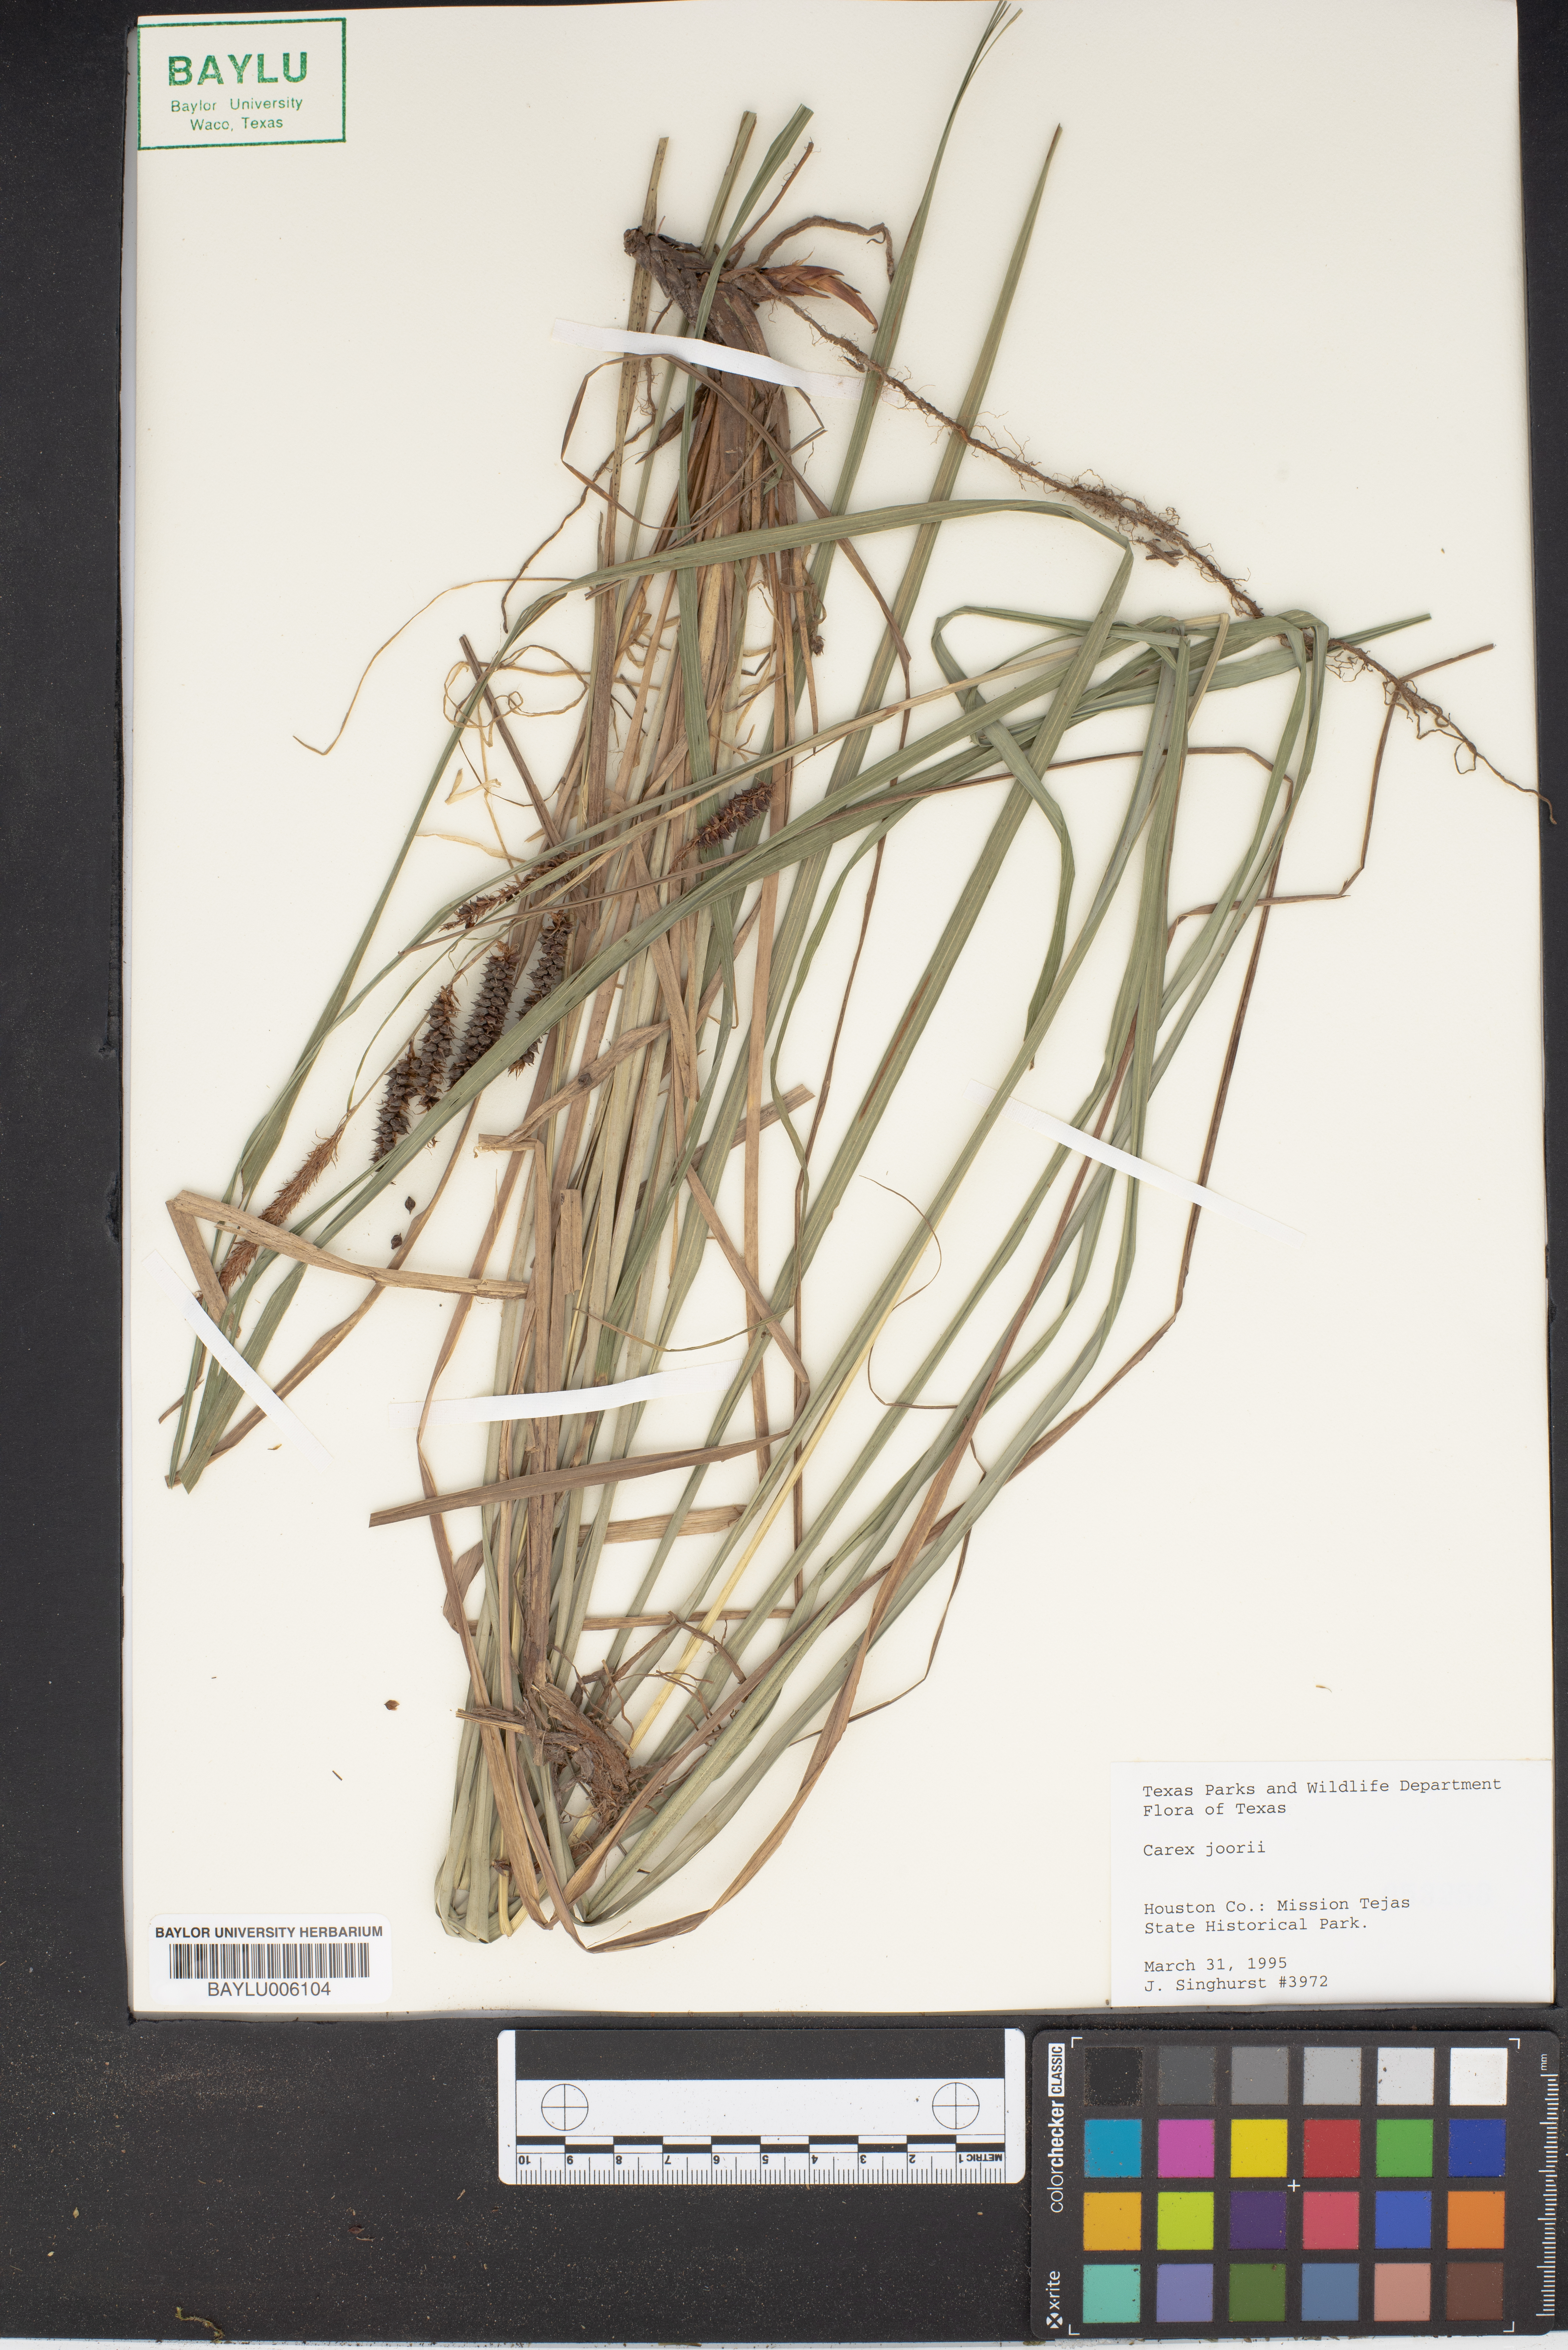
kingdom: Plantae
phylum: Tracheophyta
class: Liliopsida
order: Poales
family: Cyperaceae
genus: Carex
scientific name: Carex joorii
